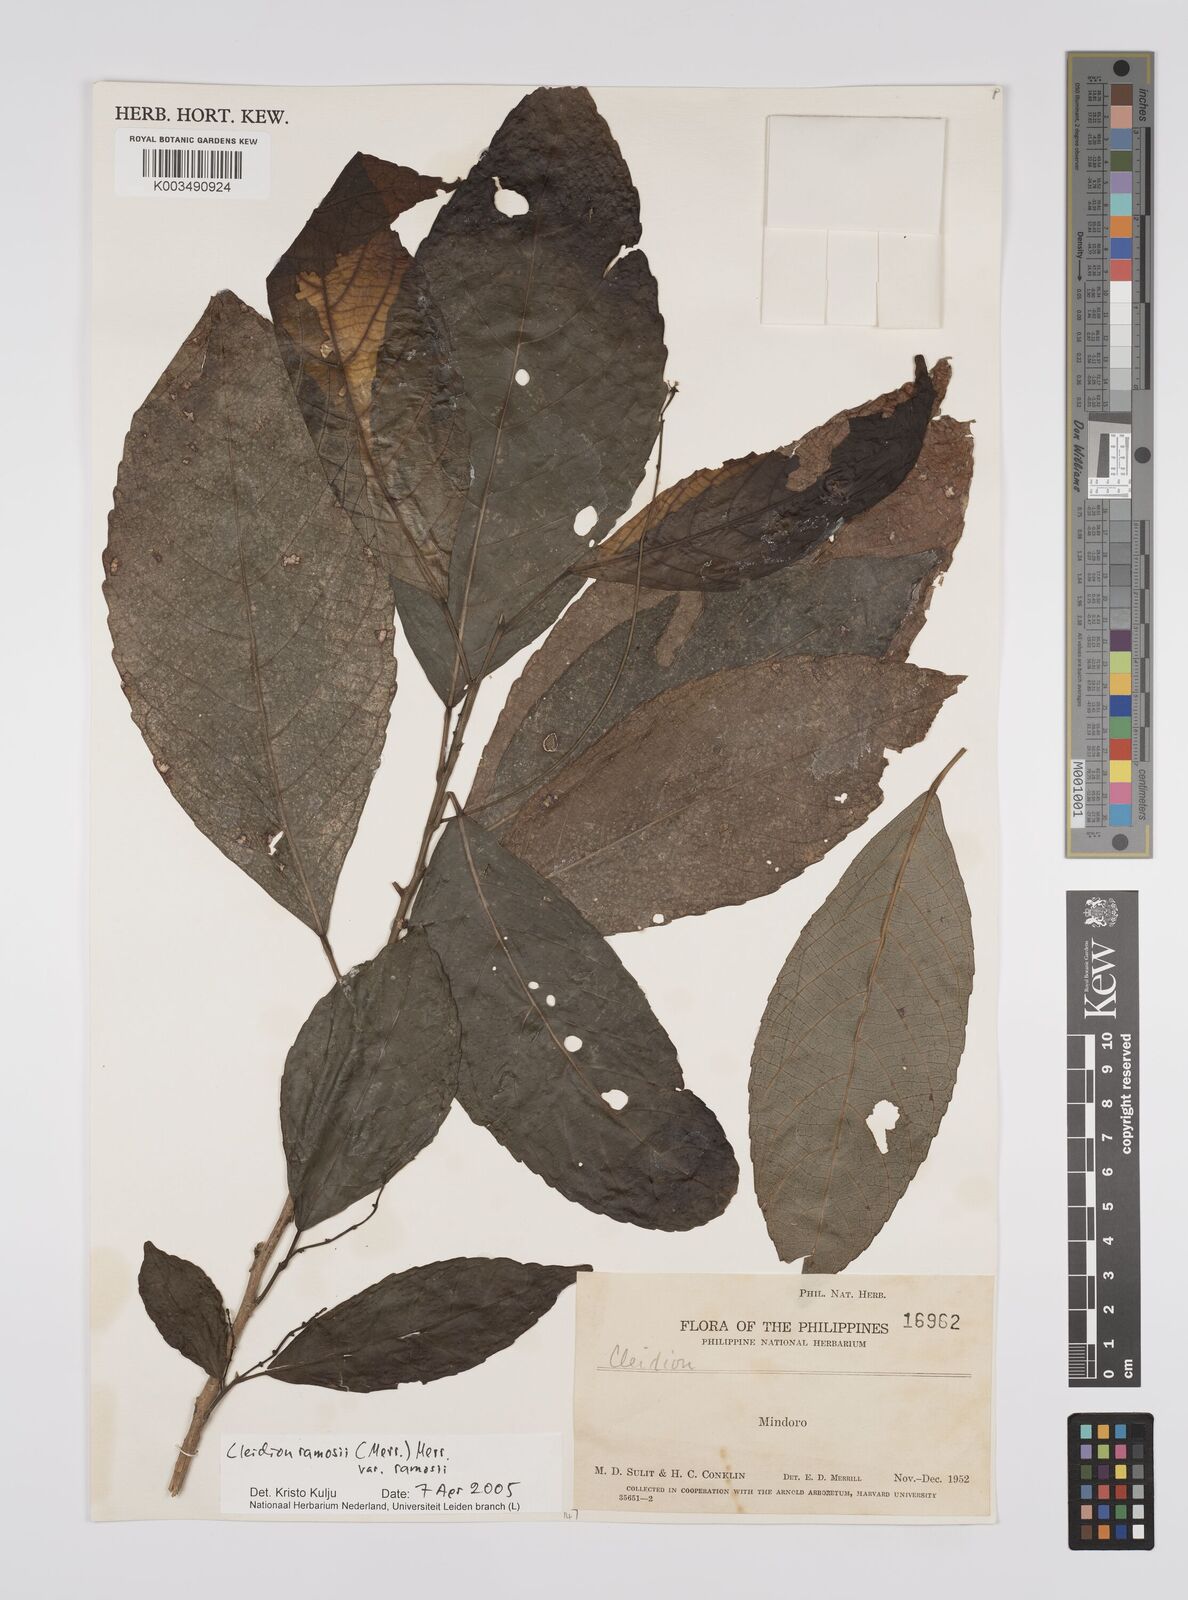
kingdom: Plantae
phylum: Tracheophyta
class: Magnoliopsida
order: Malpighiales
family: Euphorbiaceae
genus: Cleidion
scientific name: Cleidion ramosii
